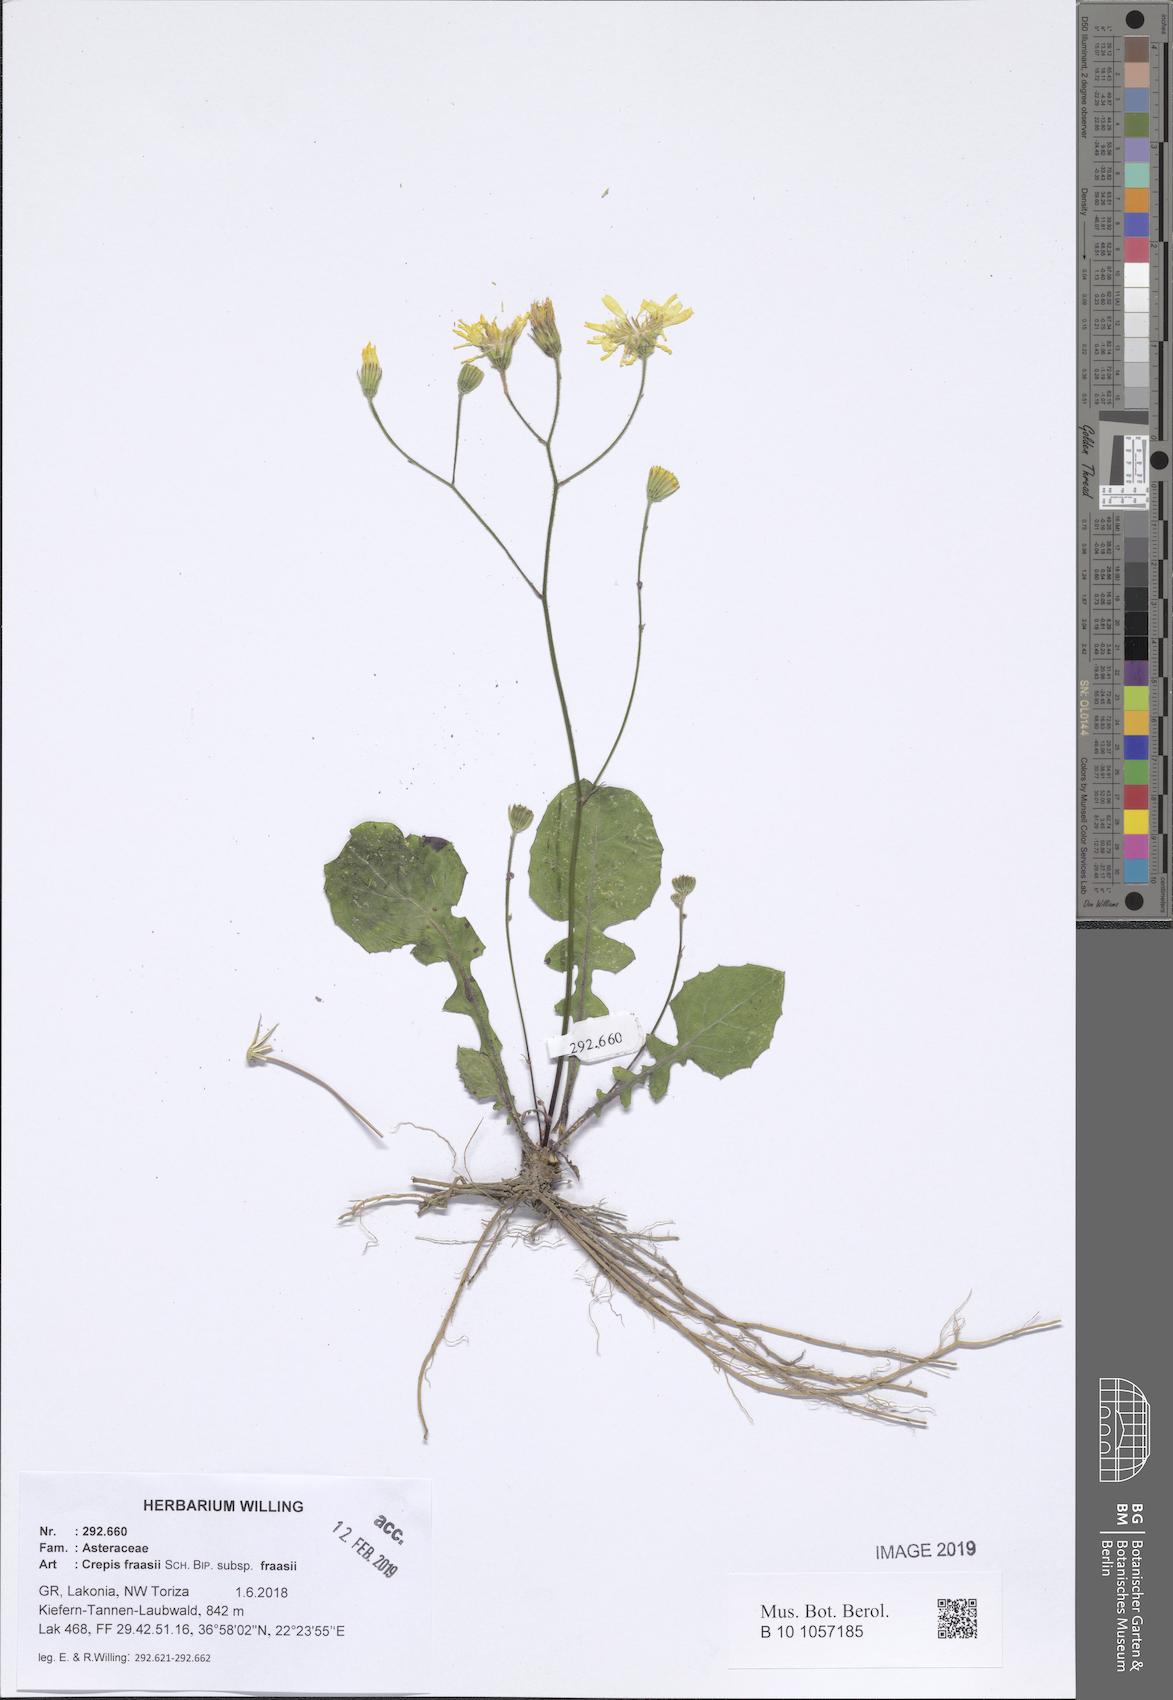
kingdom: Plantae
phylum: Tracheophyta
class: Magnoliopsida
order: Asterales
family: Asteraceae
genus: Crepis
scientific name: Crepis fraasii
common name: Hawk's-beard
